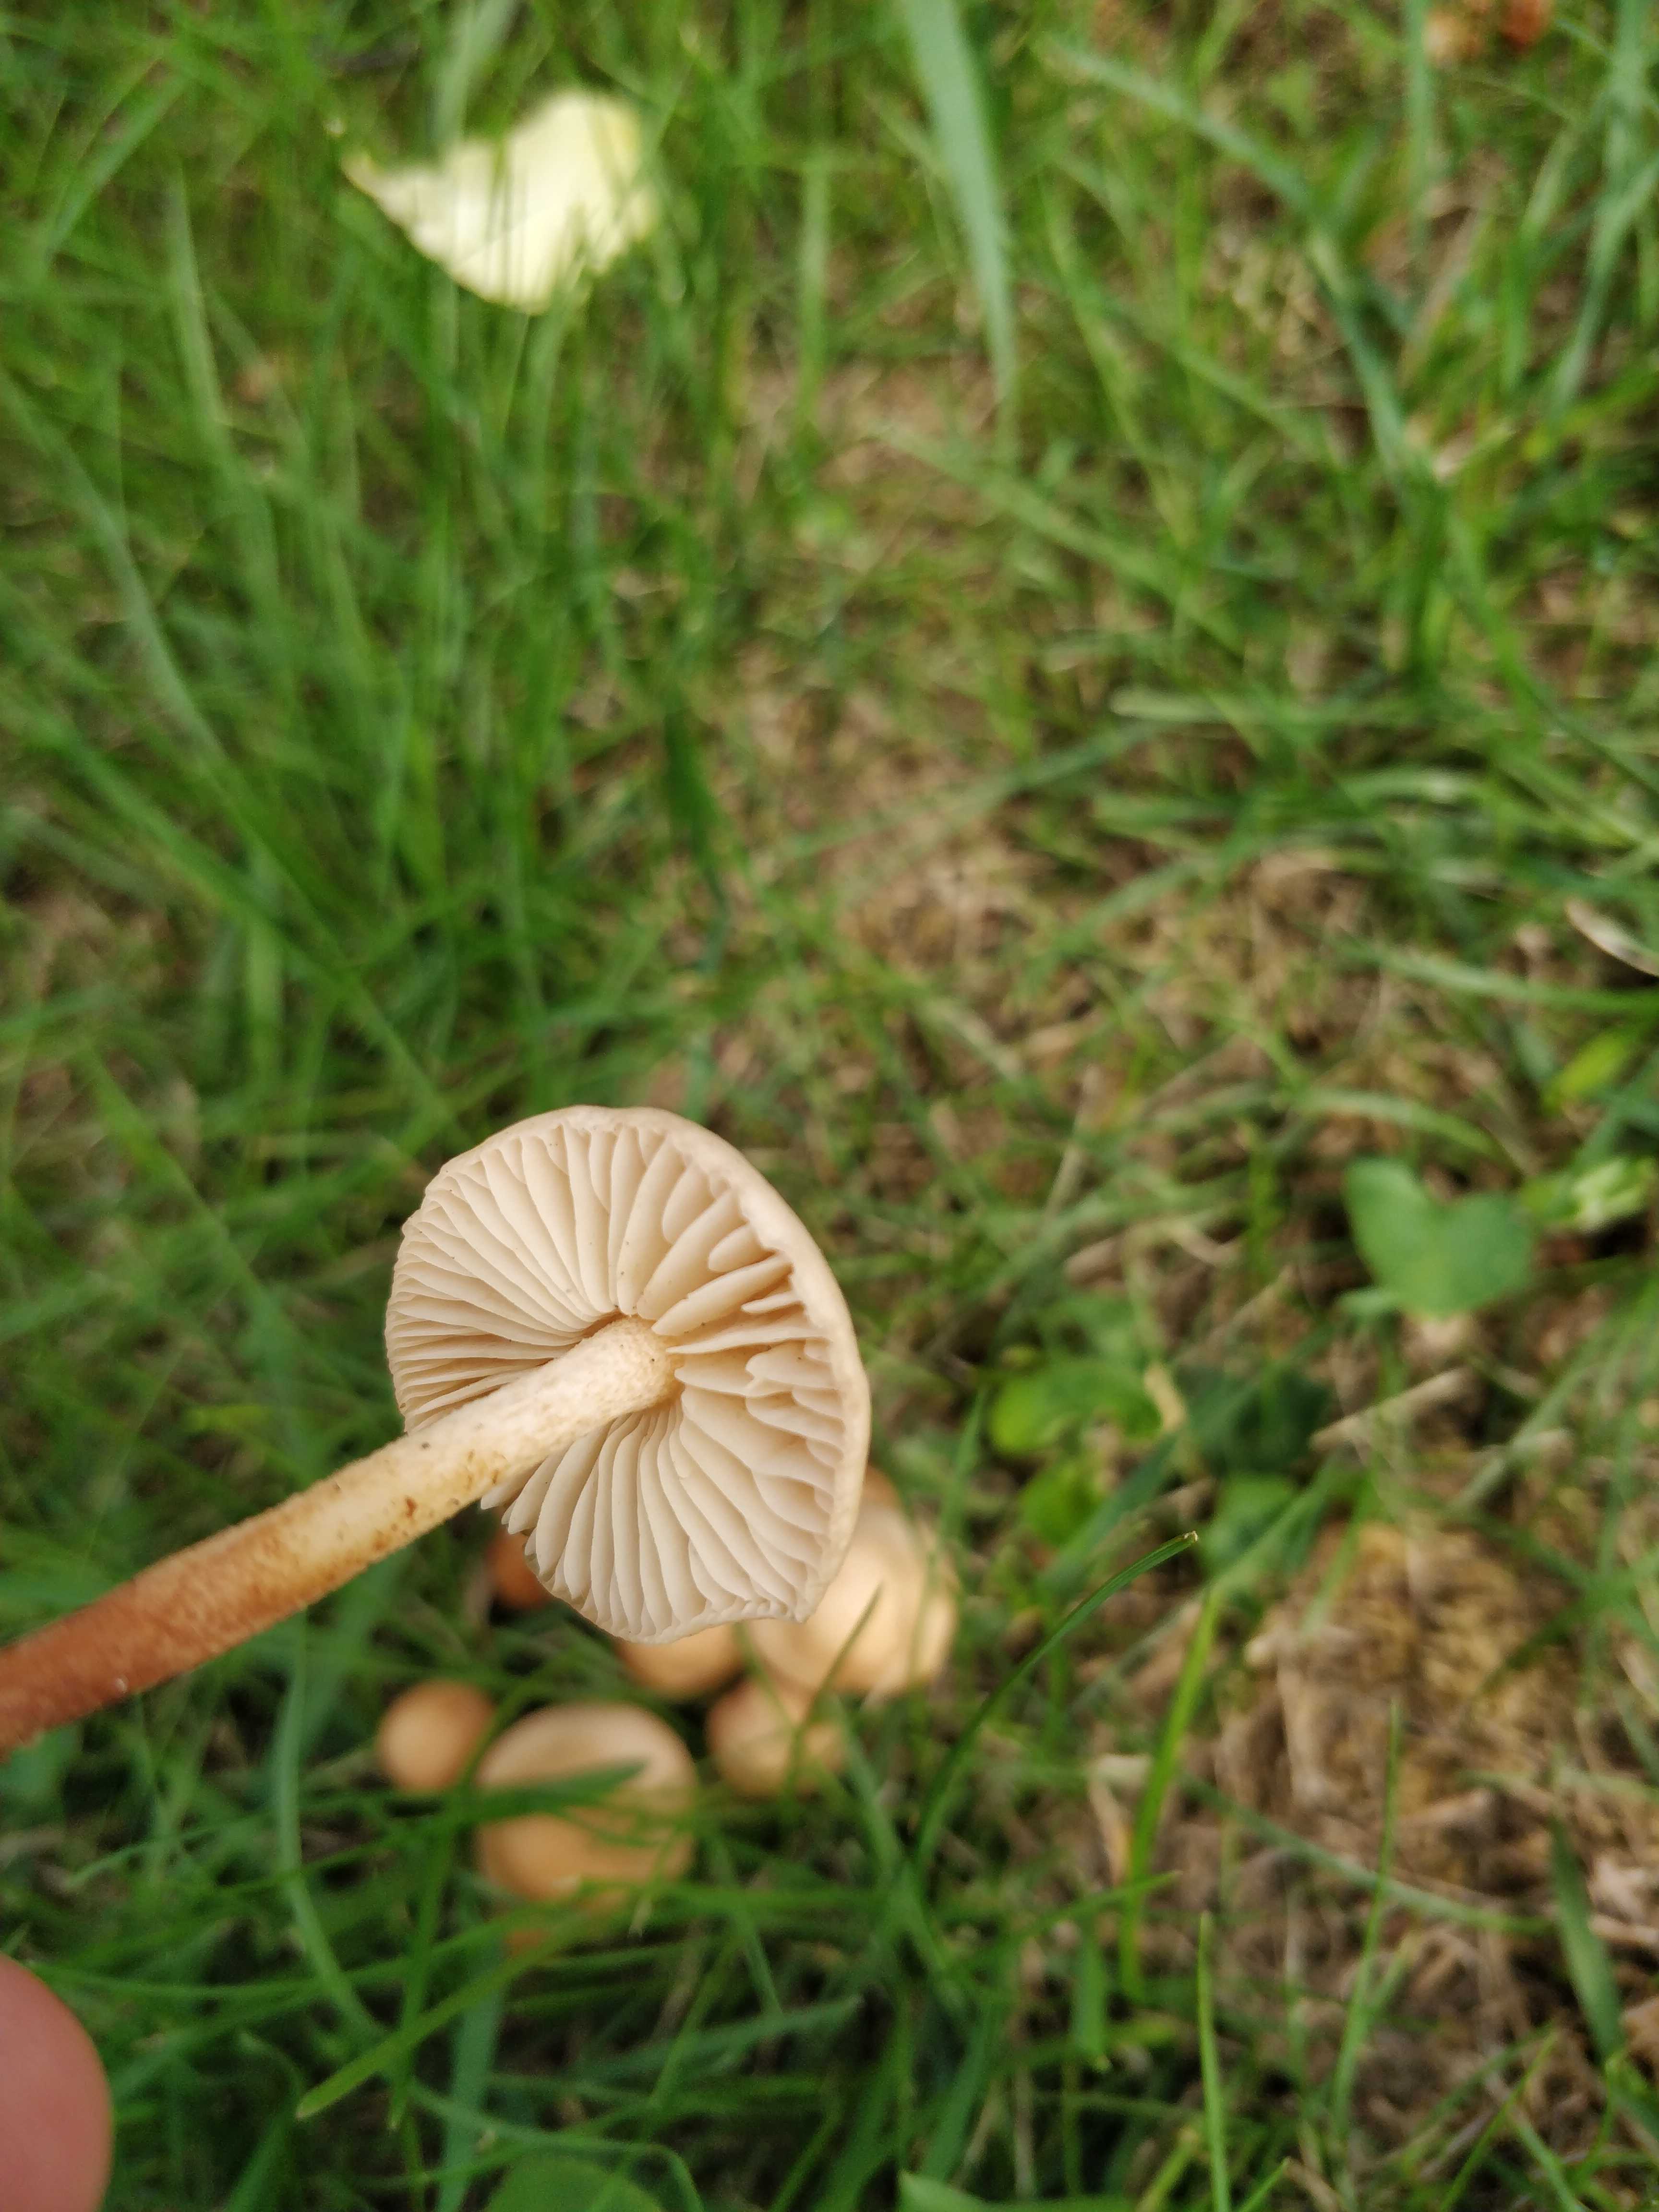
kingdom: Fungi
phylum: Basidiomycota
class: Agaricomycetes
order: Agaricales
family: Marasmiaceae
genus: Marasmius
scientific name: Marasmius oreades
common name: elledans-bruskhat
